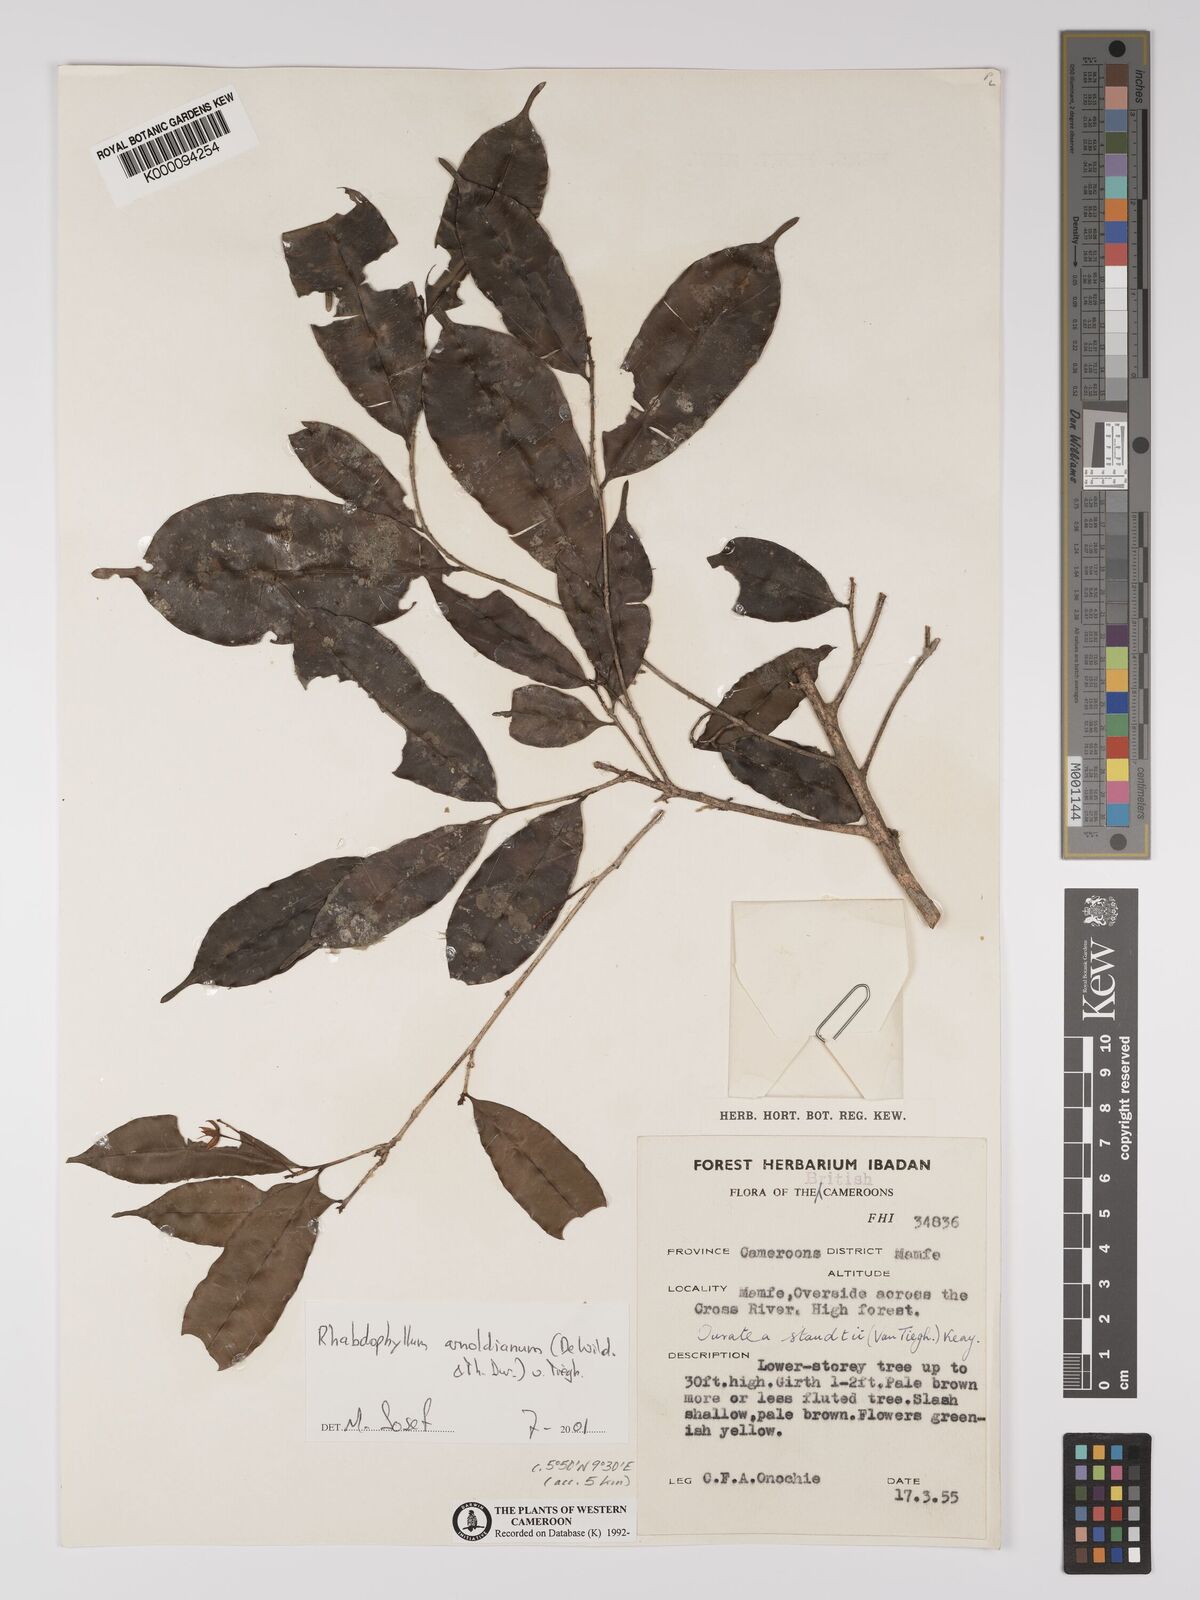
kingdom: Plantae
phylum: Tracheophyta
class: Magnoliopsida
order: Malpighiales
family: Ochnaceae
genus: Rhabdophyllum
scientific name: Rhabdophyllum arnoldianum
